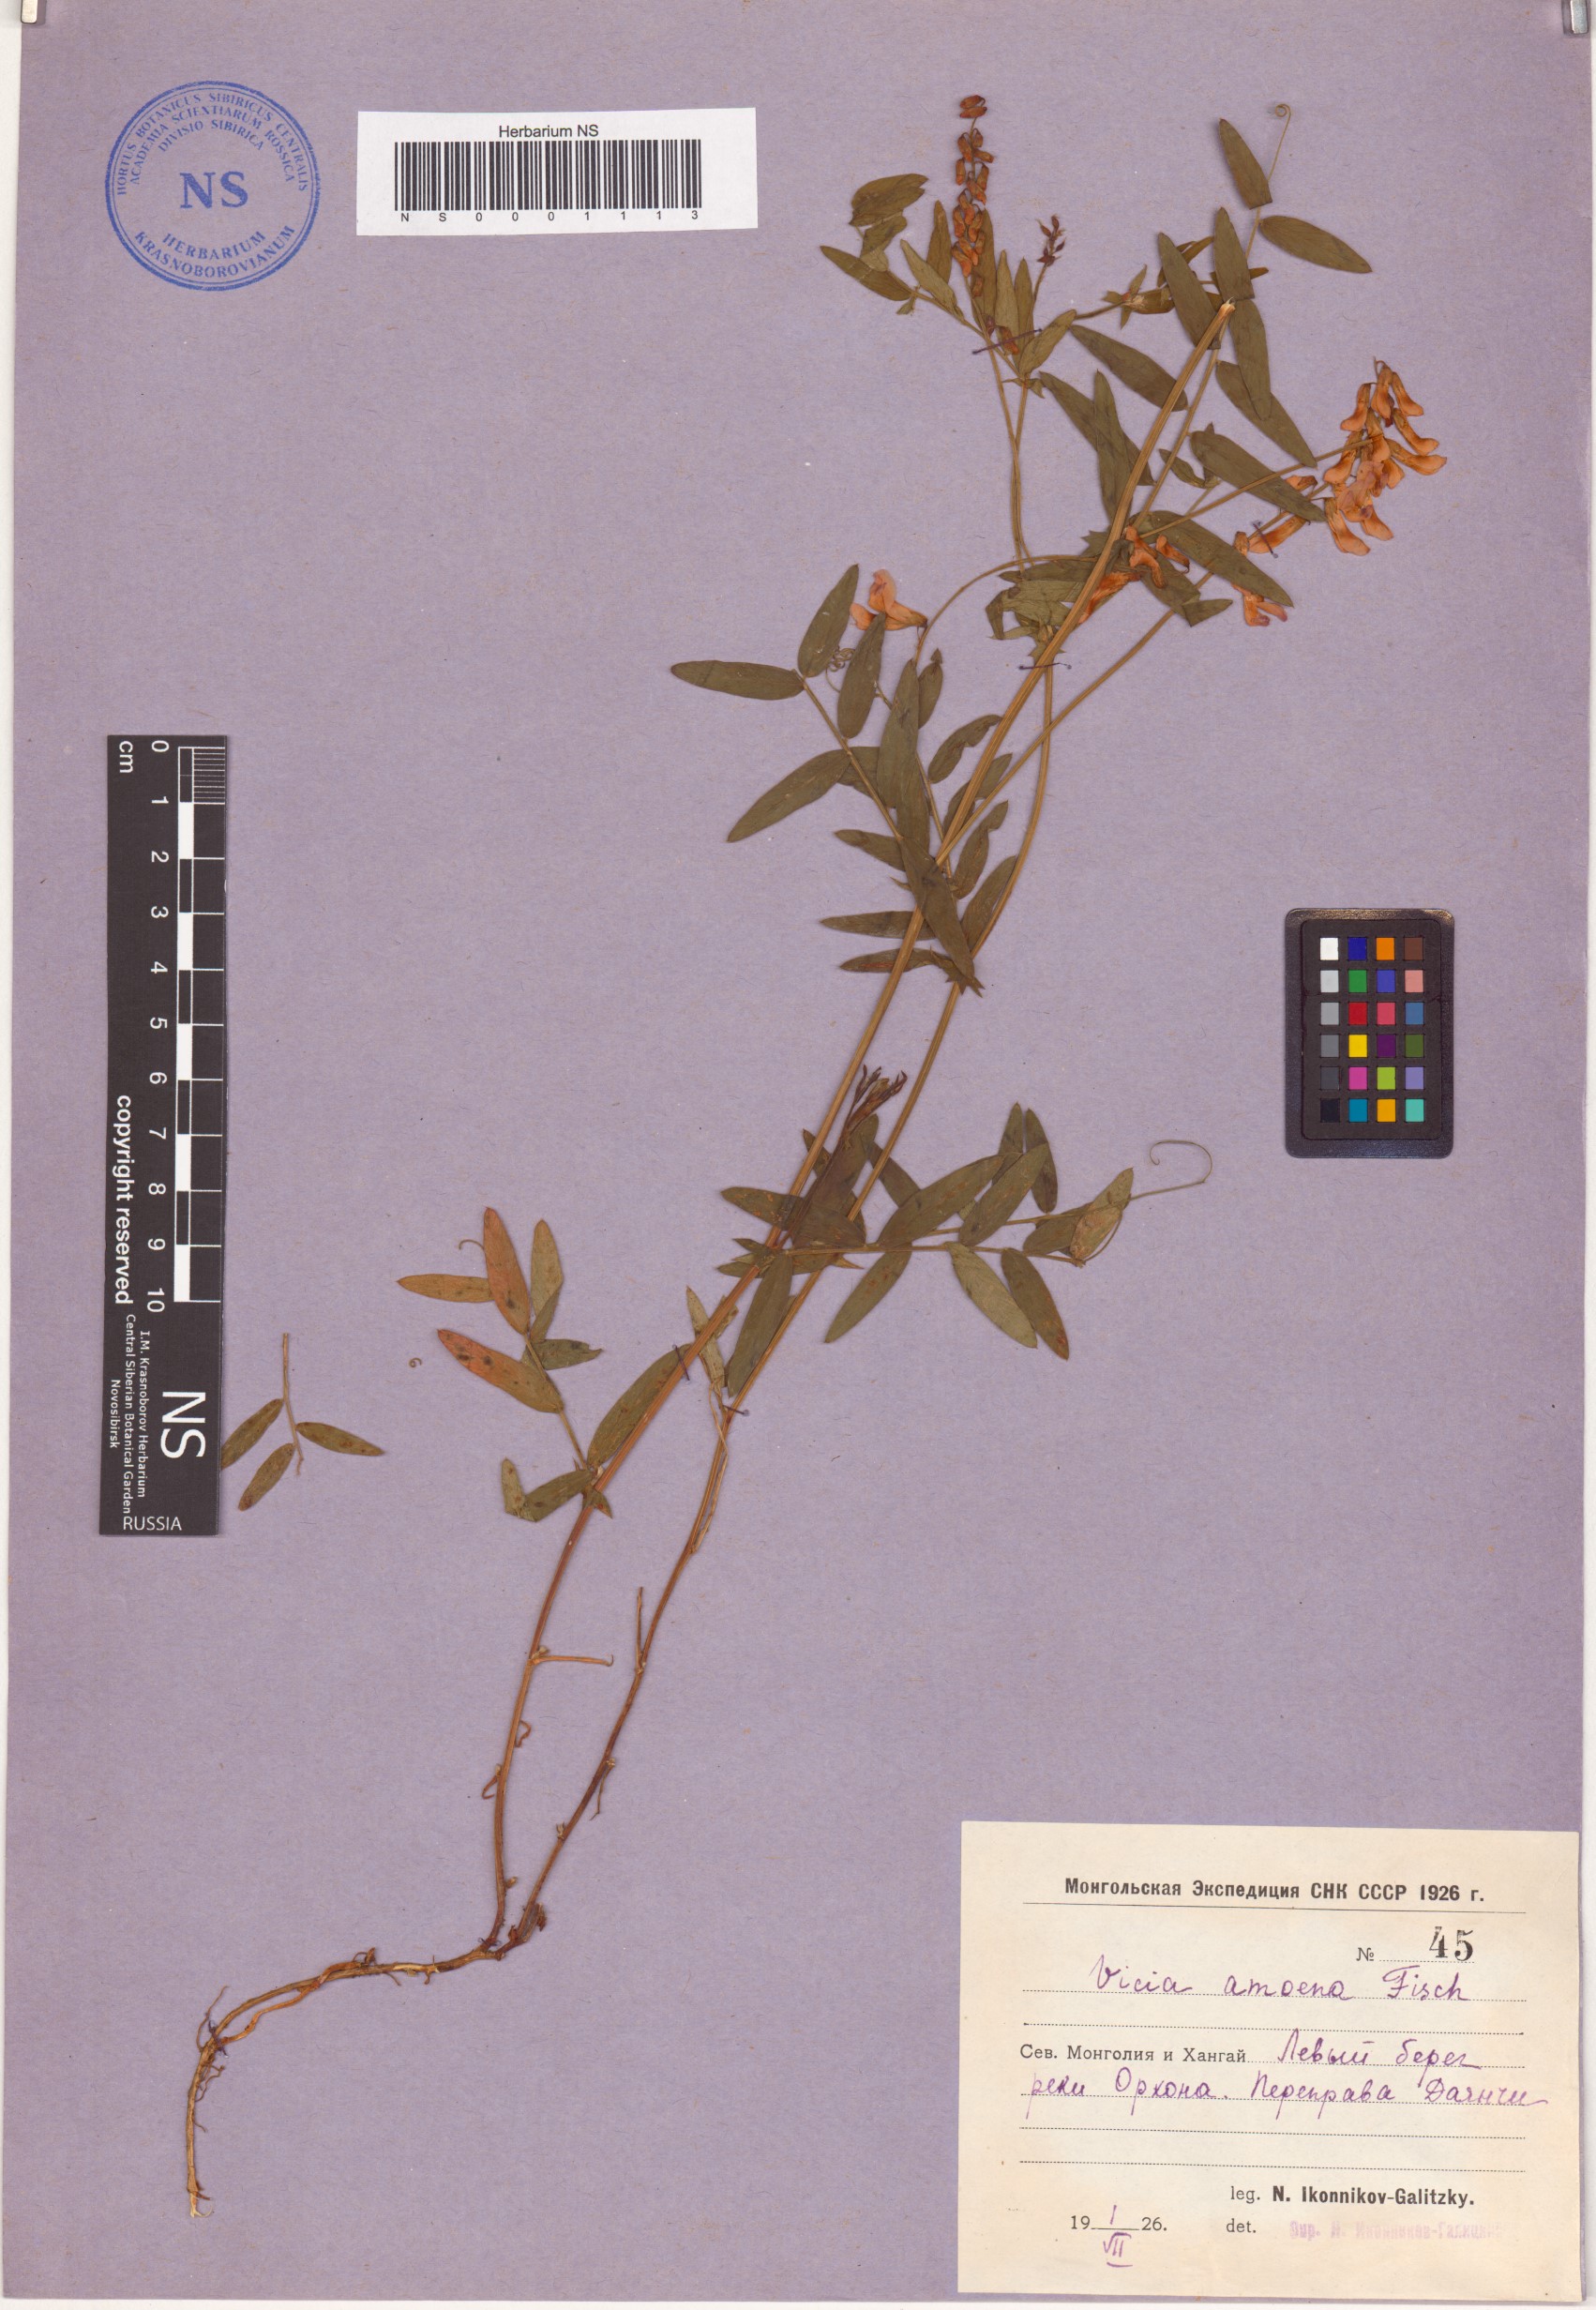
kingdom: Plantae
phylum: Tracheophyta
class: Magnoliopsida
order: Fabales
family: Fabaceae
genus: Vicia
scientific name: Vicia amoena
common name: Cheder ebs
